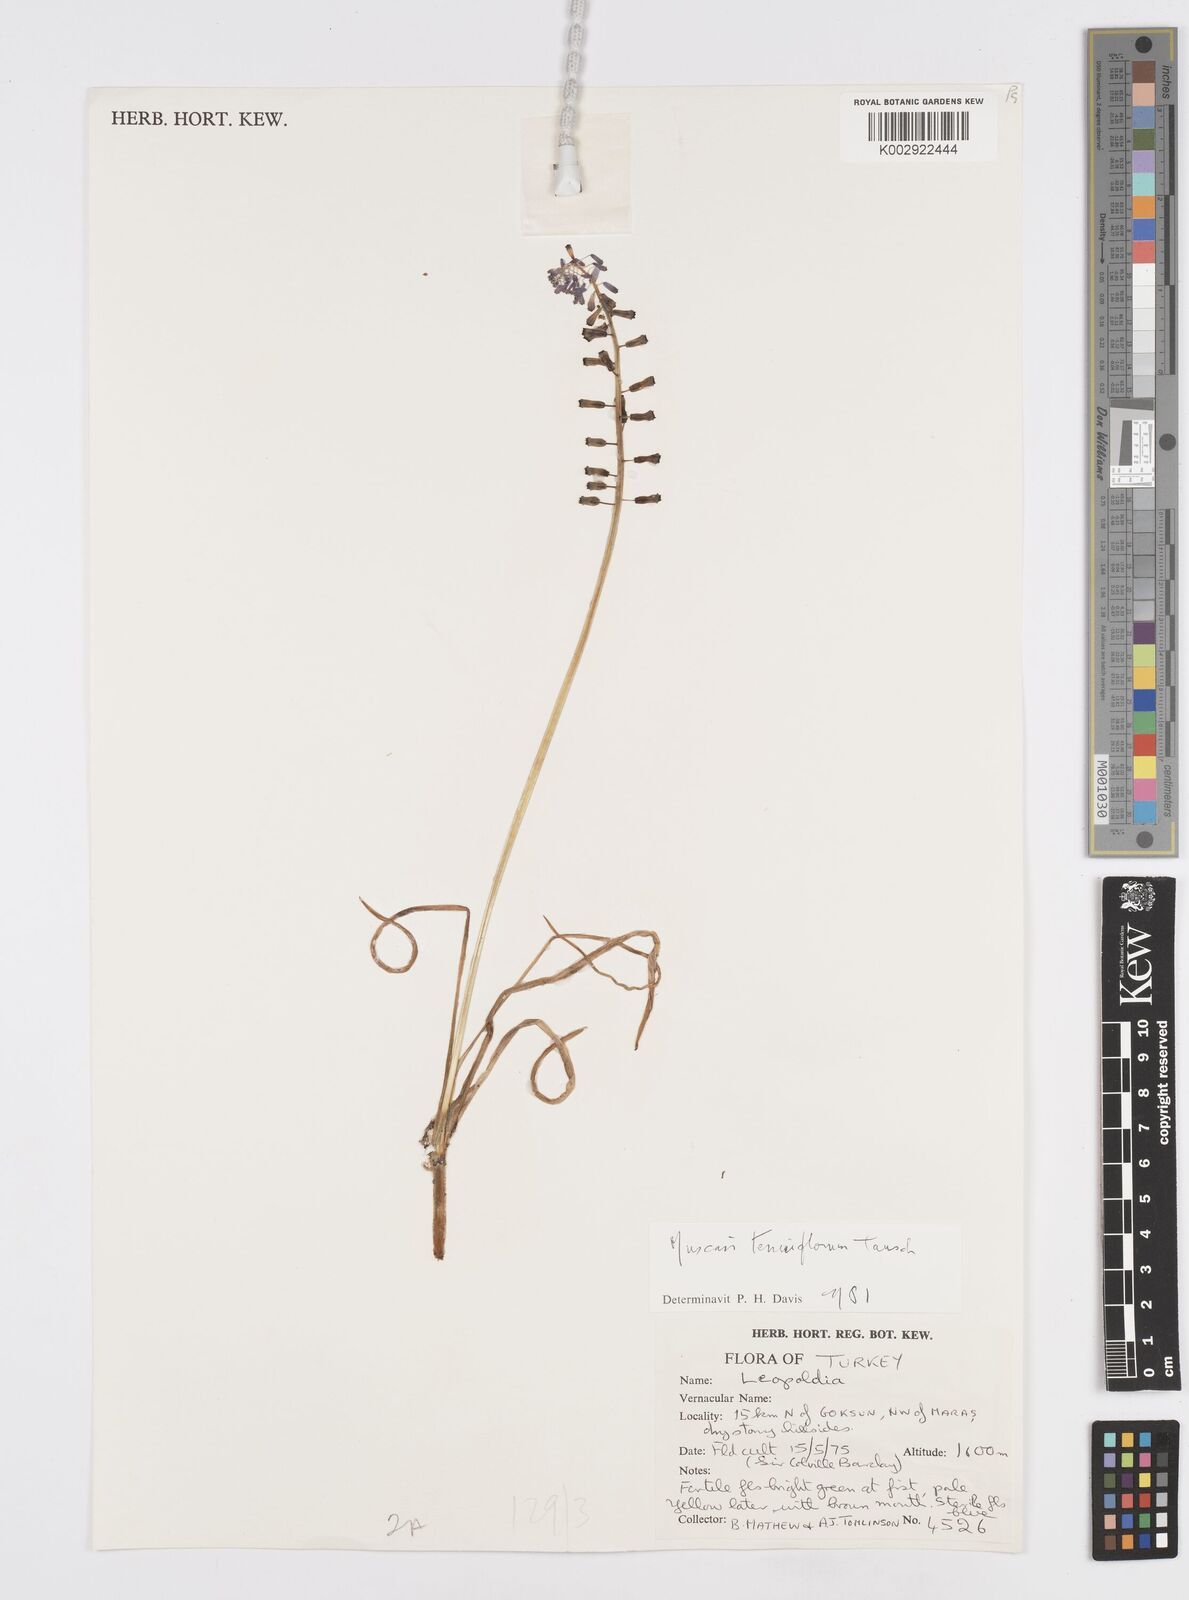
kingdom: Plantae
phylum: Tracheophyta
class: Liliopsida
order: Asparagales
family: Asparagaceae
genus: Muscari
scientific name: Muscari tenuiflorum
